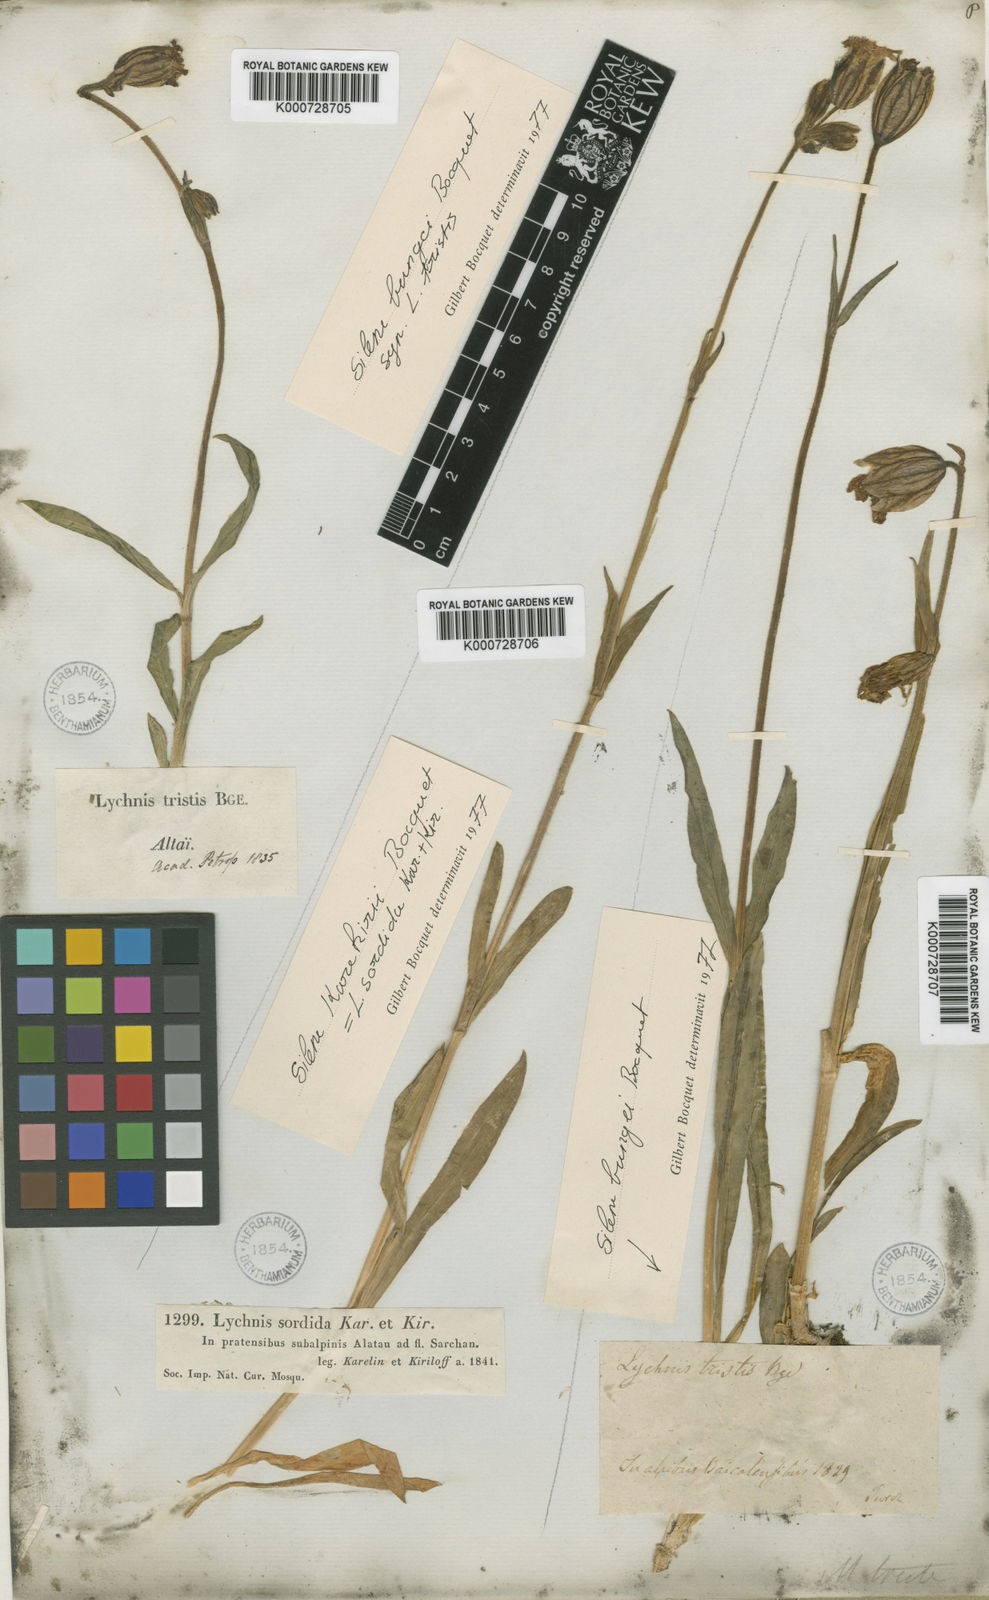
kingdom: Plantae
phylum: Tracheophyta
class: Magnoliopsida
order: Caryophyllales
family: Caryophyllaceae
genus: Silene
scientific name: Silene bungei
